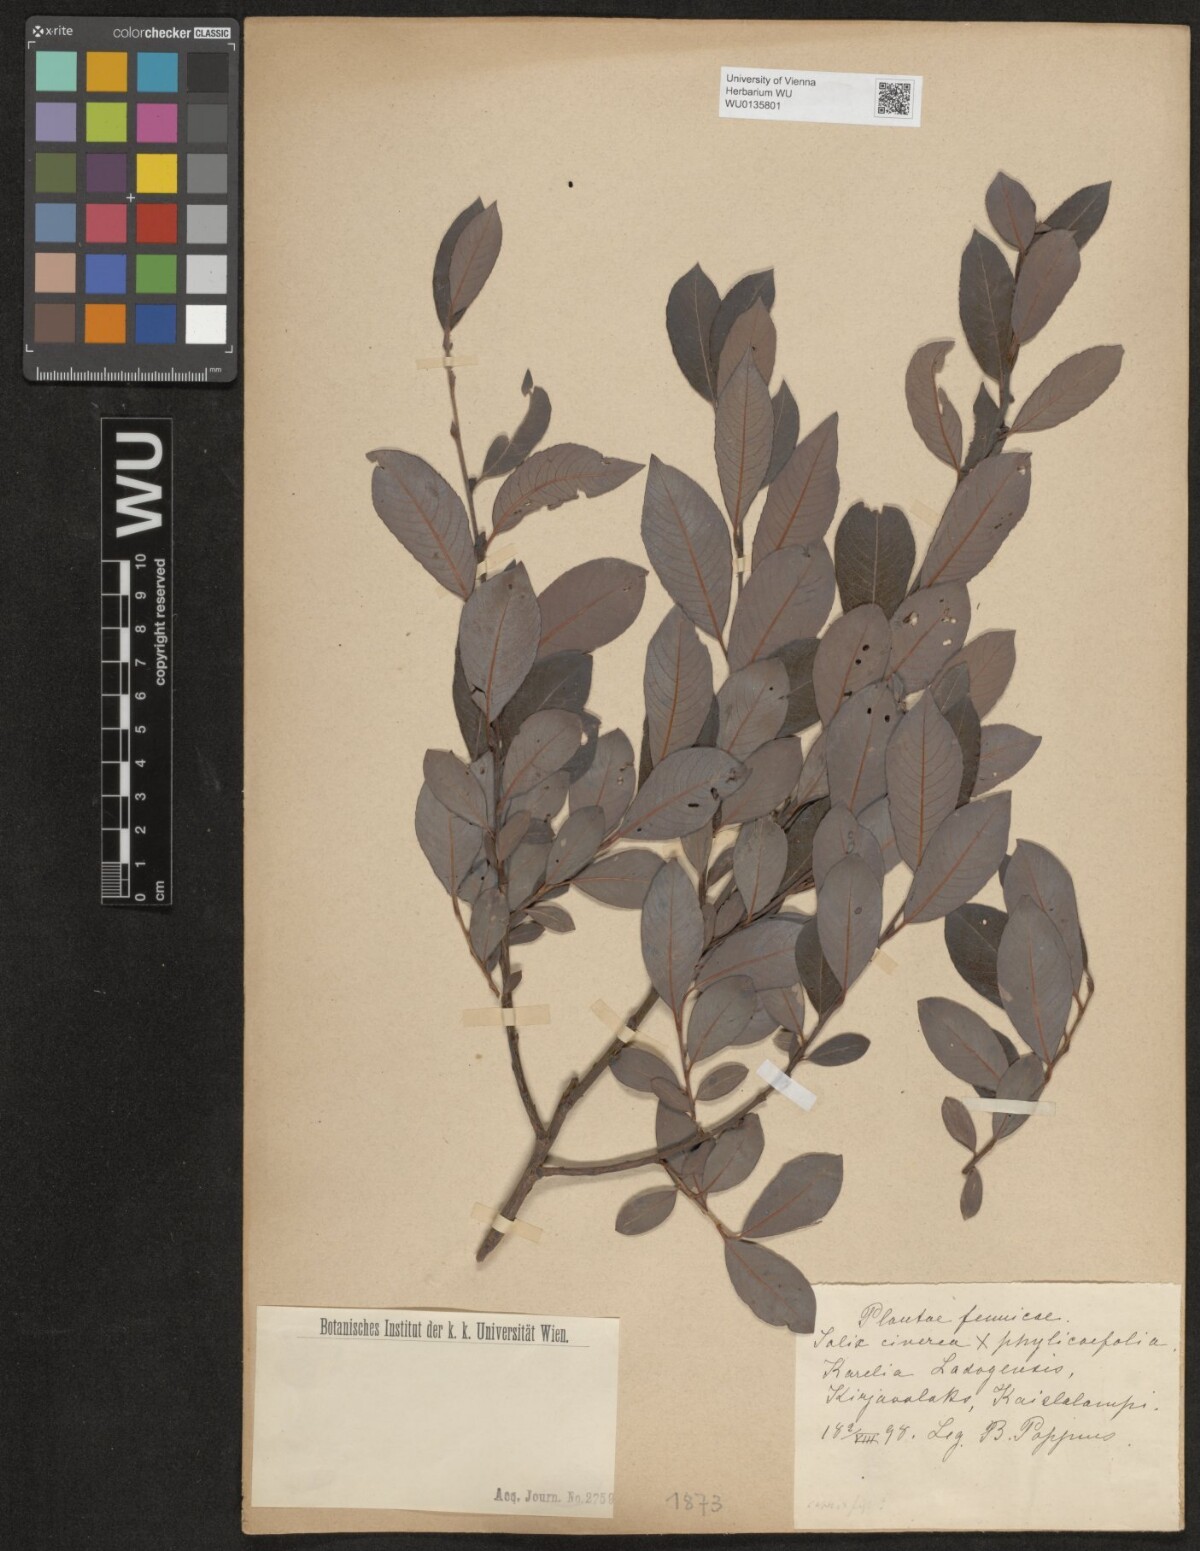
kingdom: Plantae
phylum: Tracheophyta
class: Magnoliopsida
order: Malpighiales
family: Salicaceae
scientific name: Salicaceae
